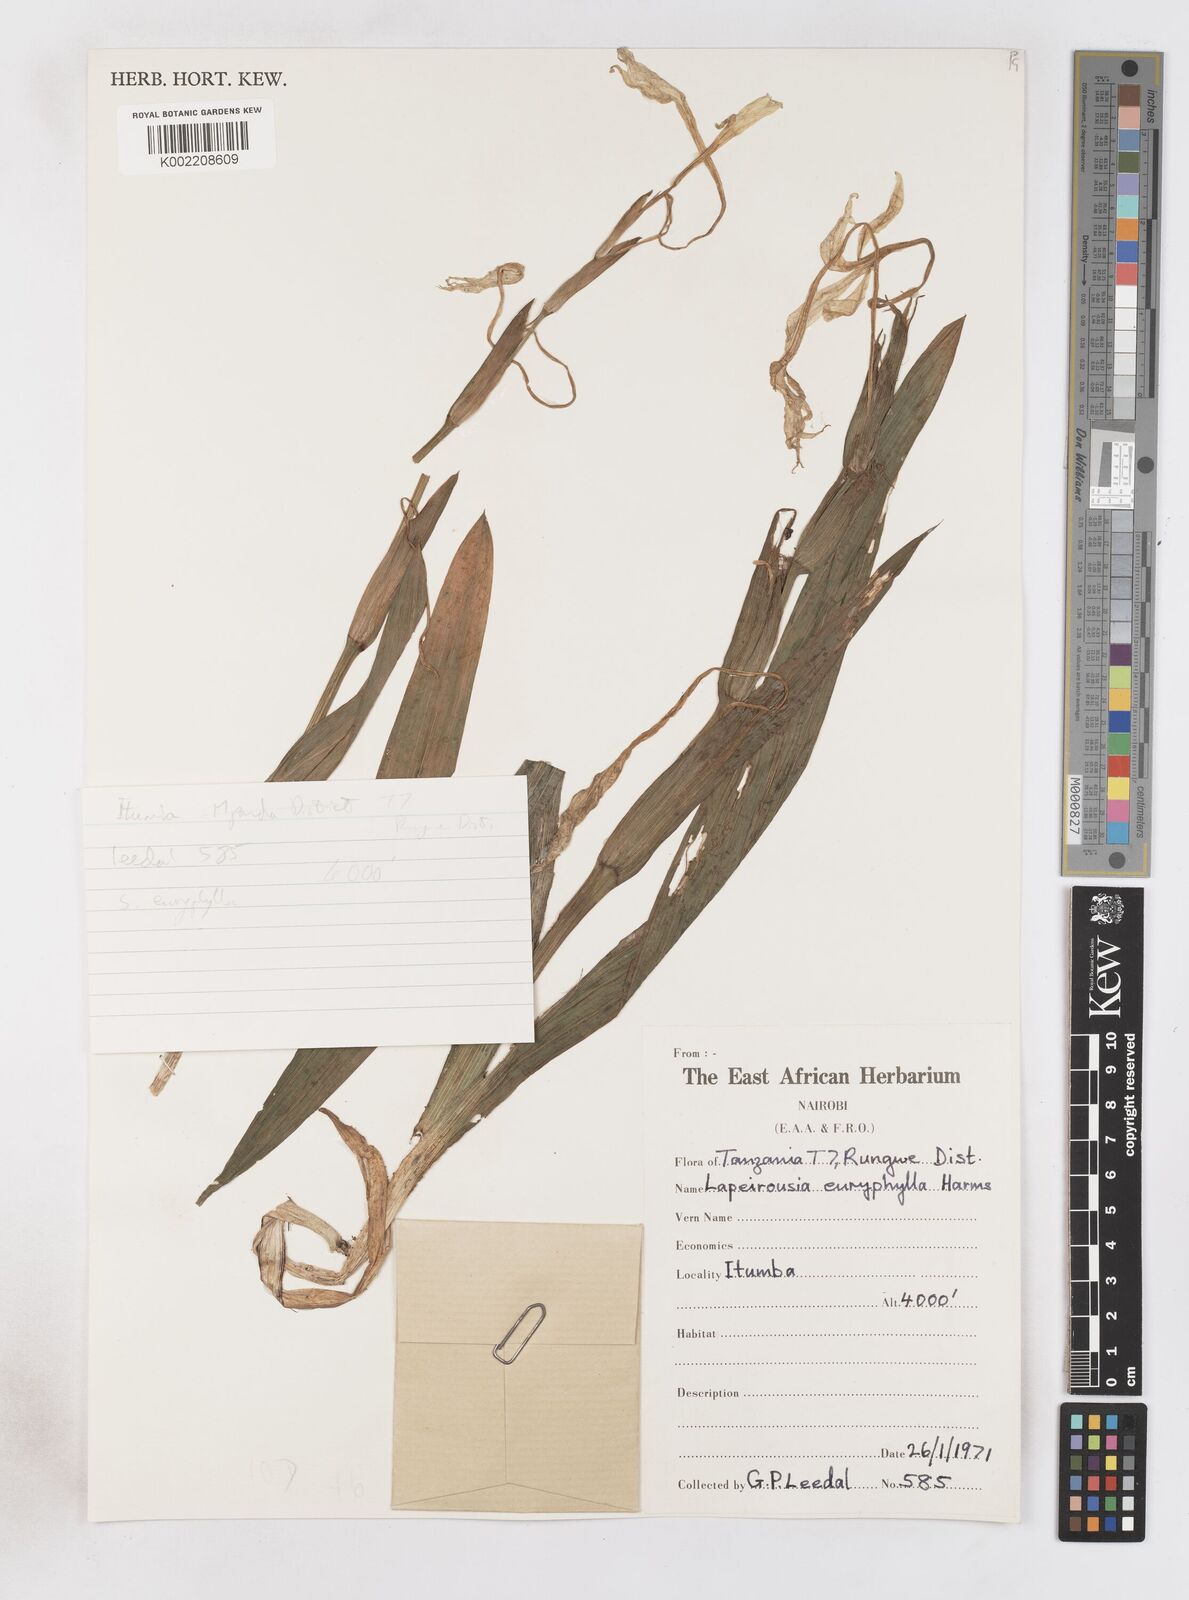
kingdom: Plantae
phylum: Tracheophyta
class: Liliopsida
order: Asparagales
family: Iridaceae
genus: Savannosiphon
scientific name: Savannosiphon euryphylla
